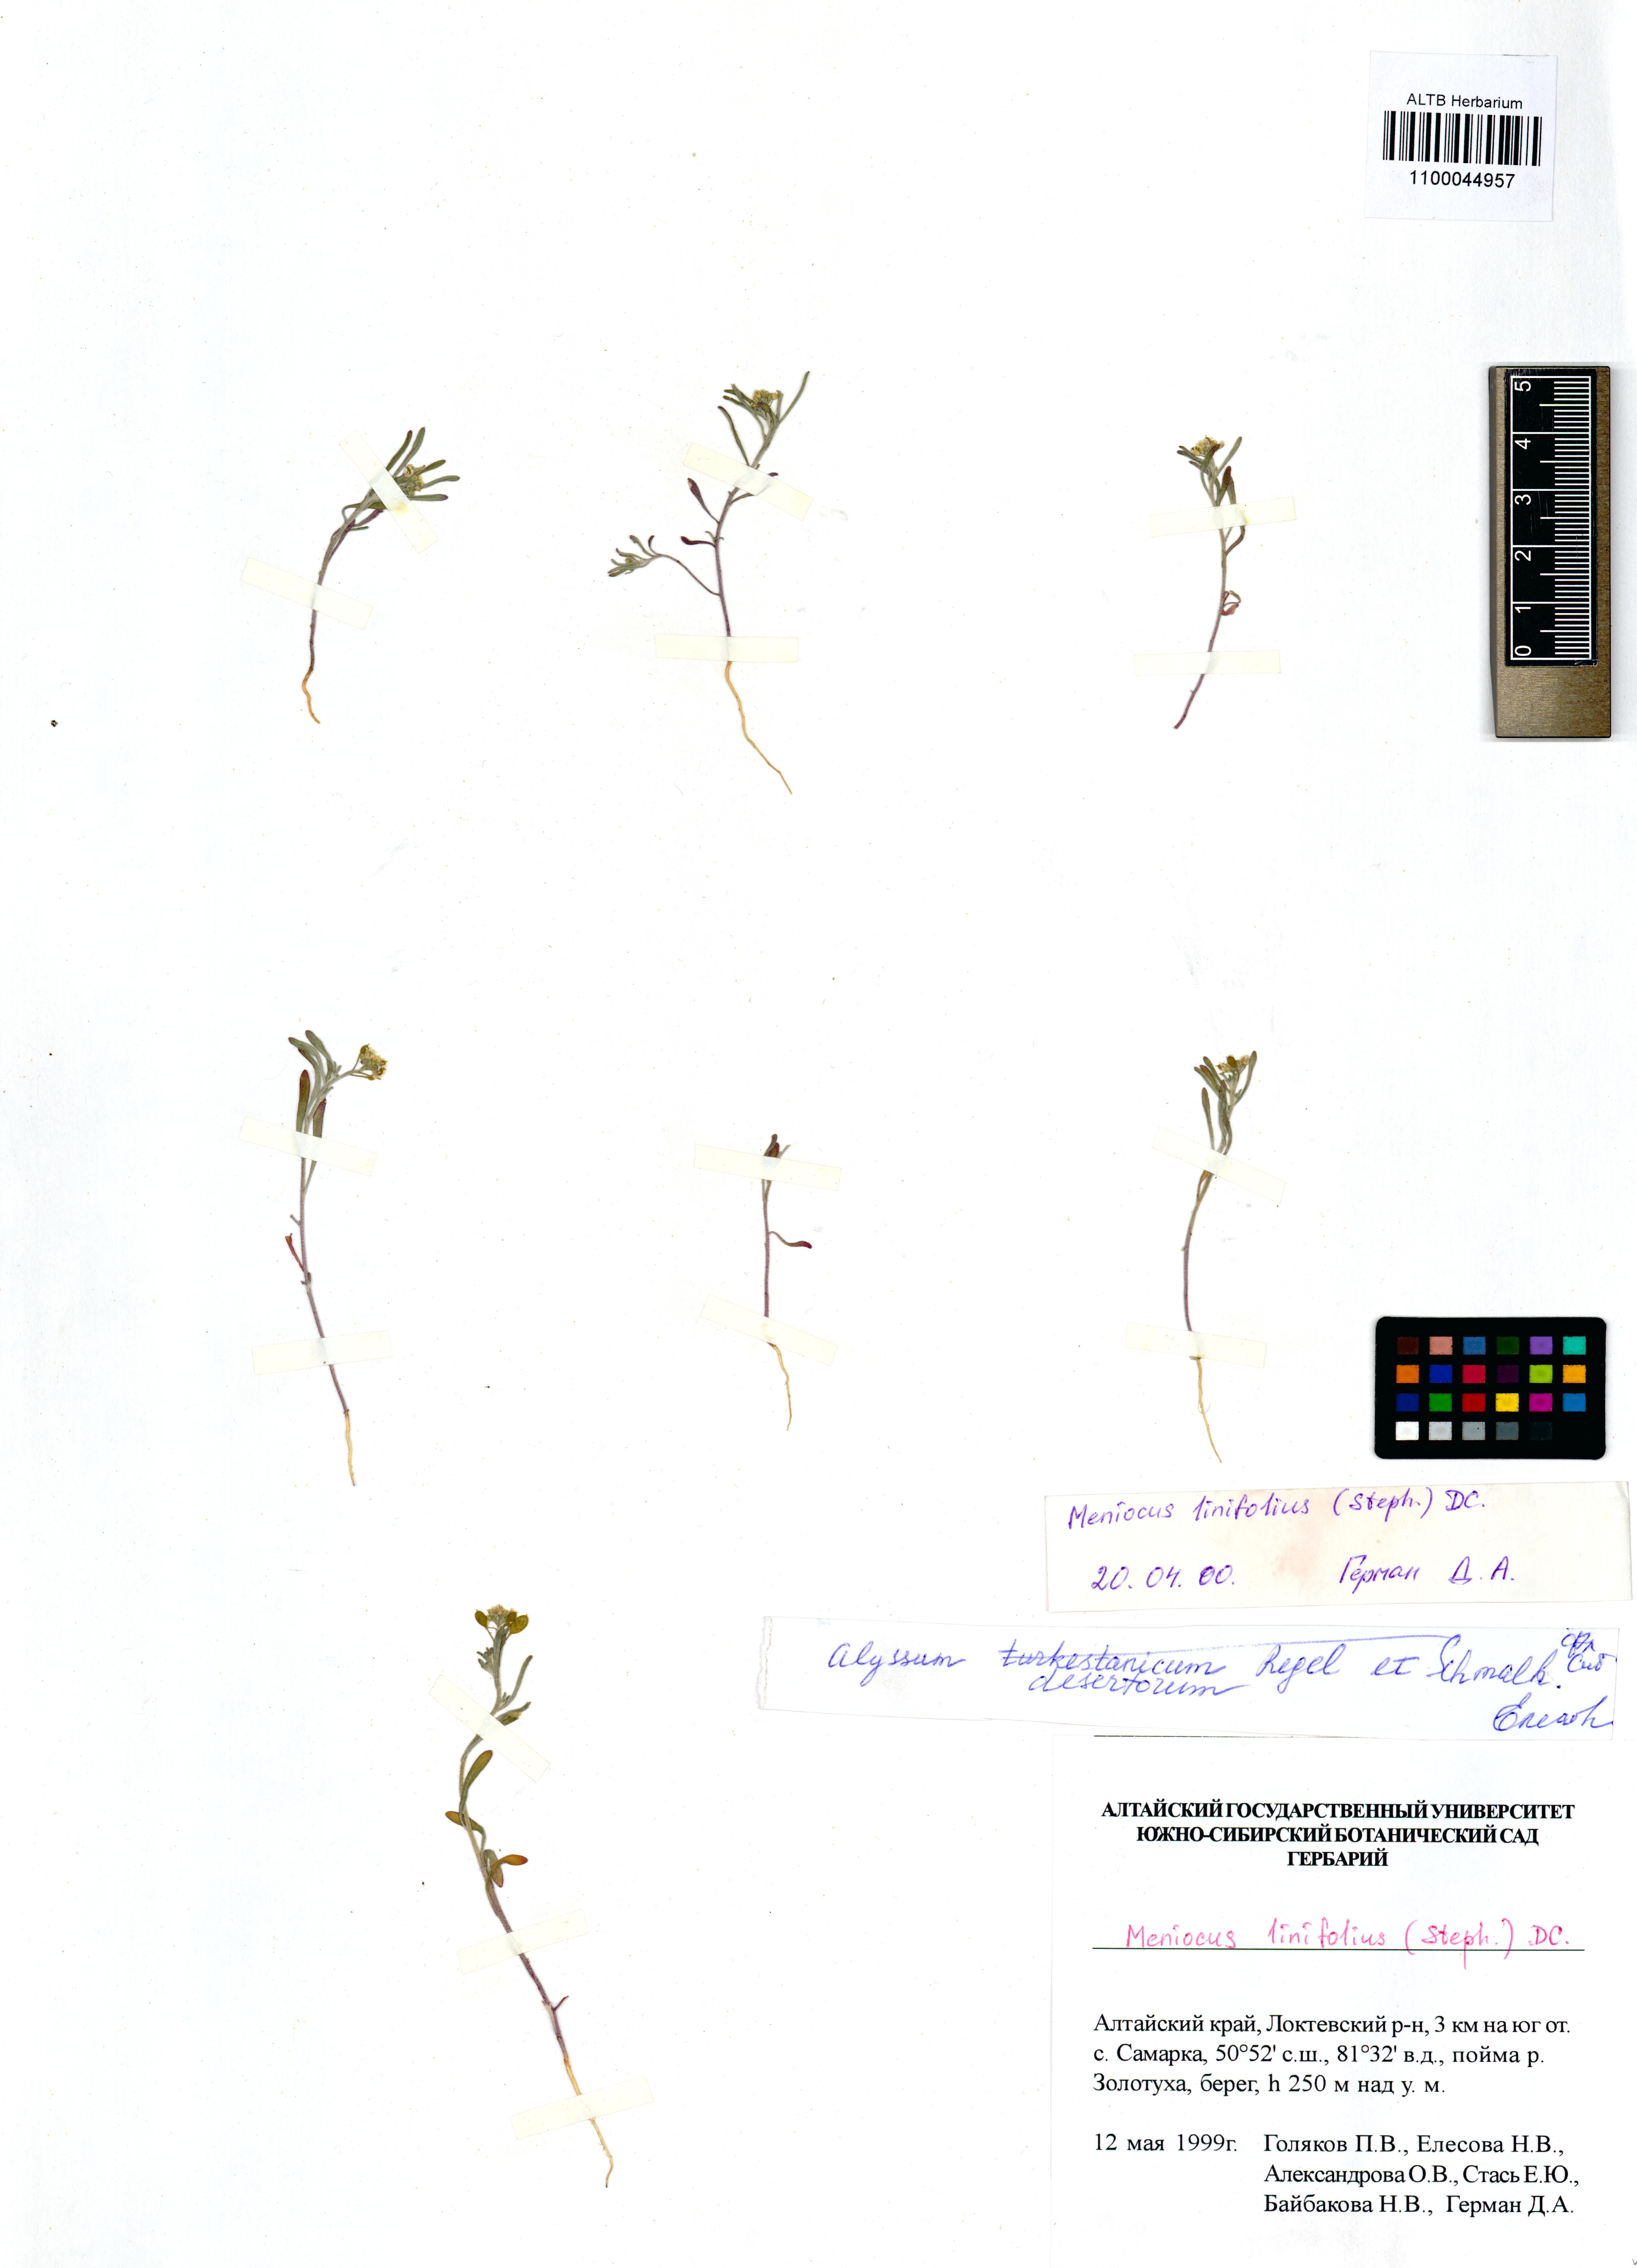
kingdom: Plantae
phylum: Tracheophyta
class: Magnoliopsida
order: Brassicales
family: Brassicaceae
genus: Meniocus
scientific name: Meniocus linifolius
